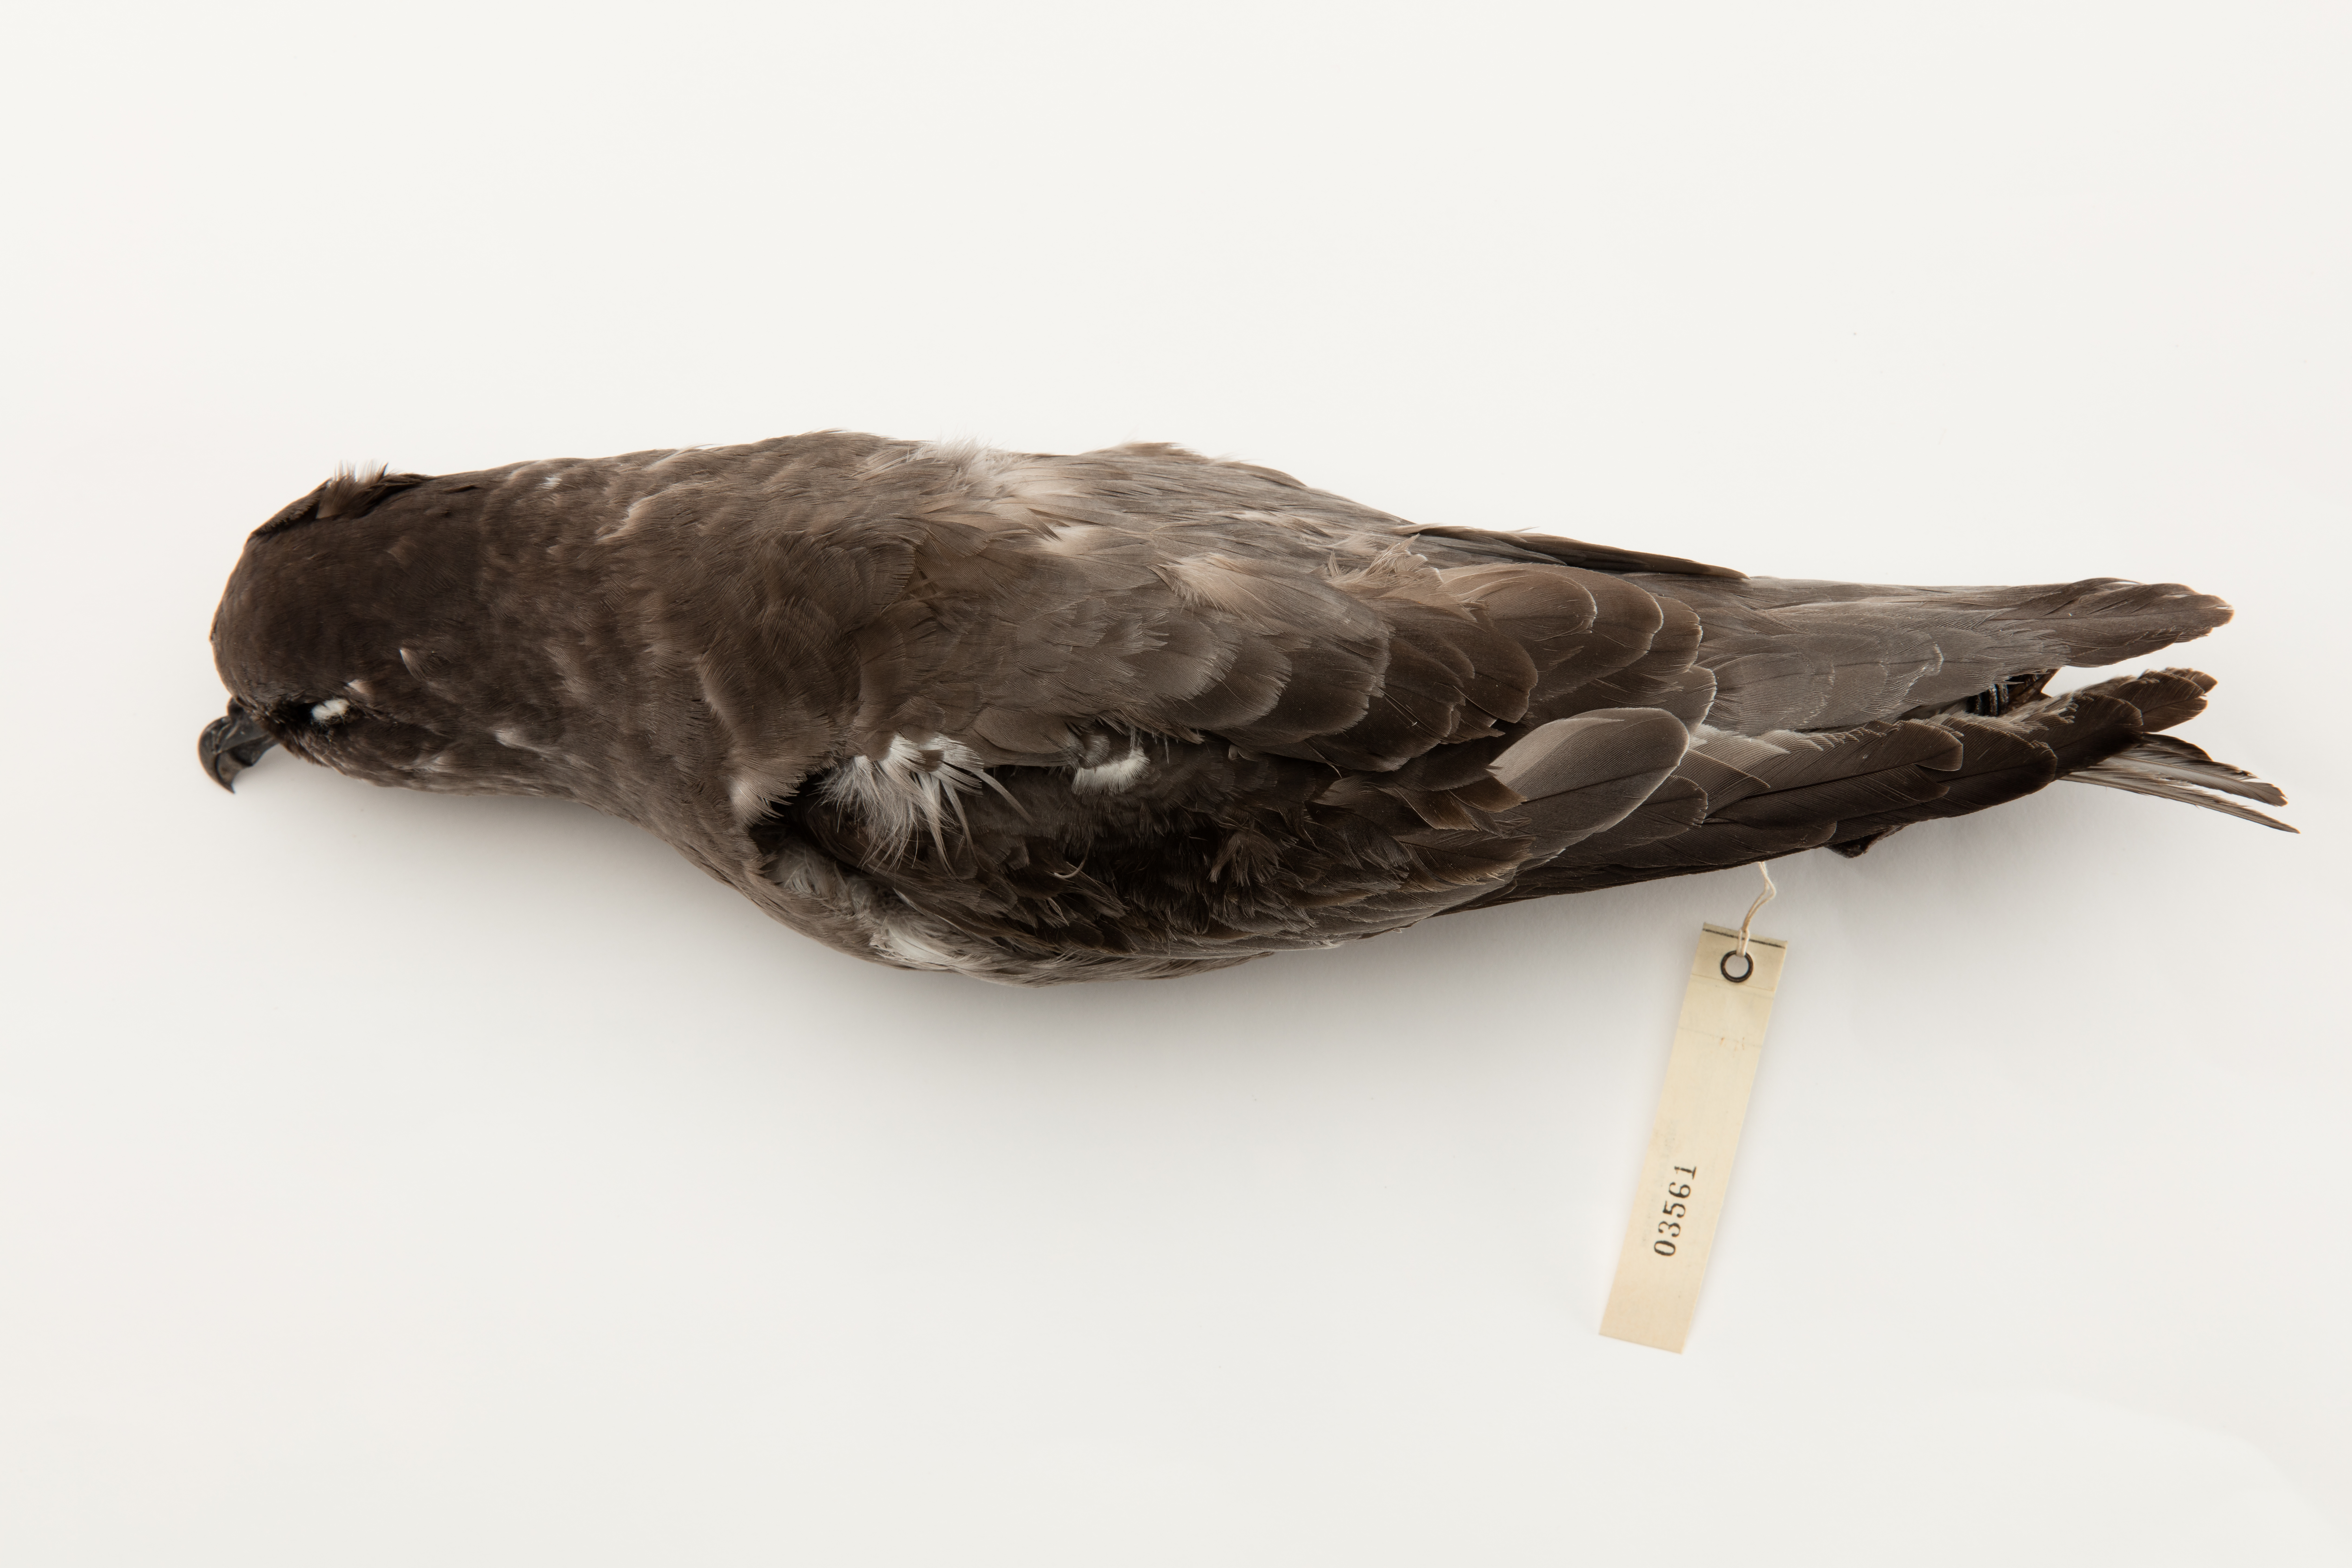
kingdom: Animalia
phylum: Chordata
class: Aves
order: Procellariiformes
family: Procellariidae
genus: Aphrodroma
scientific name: Aphrodroma brevirostris
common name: Kerguelen petrel
